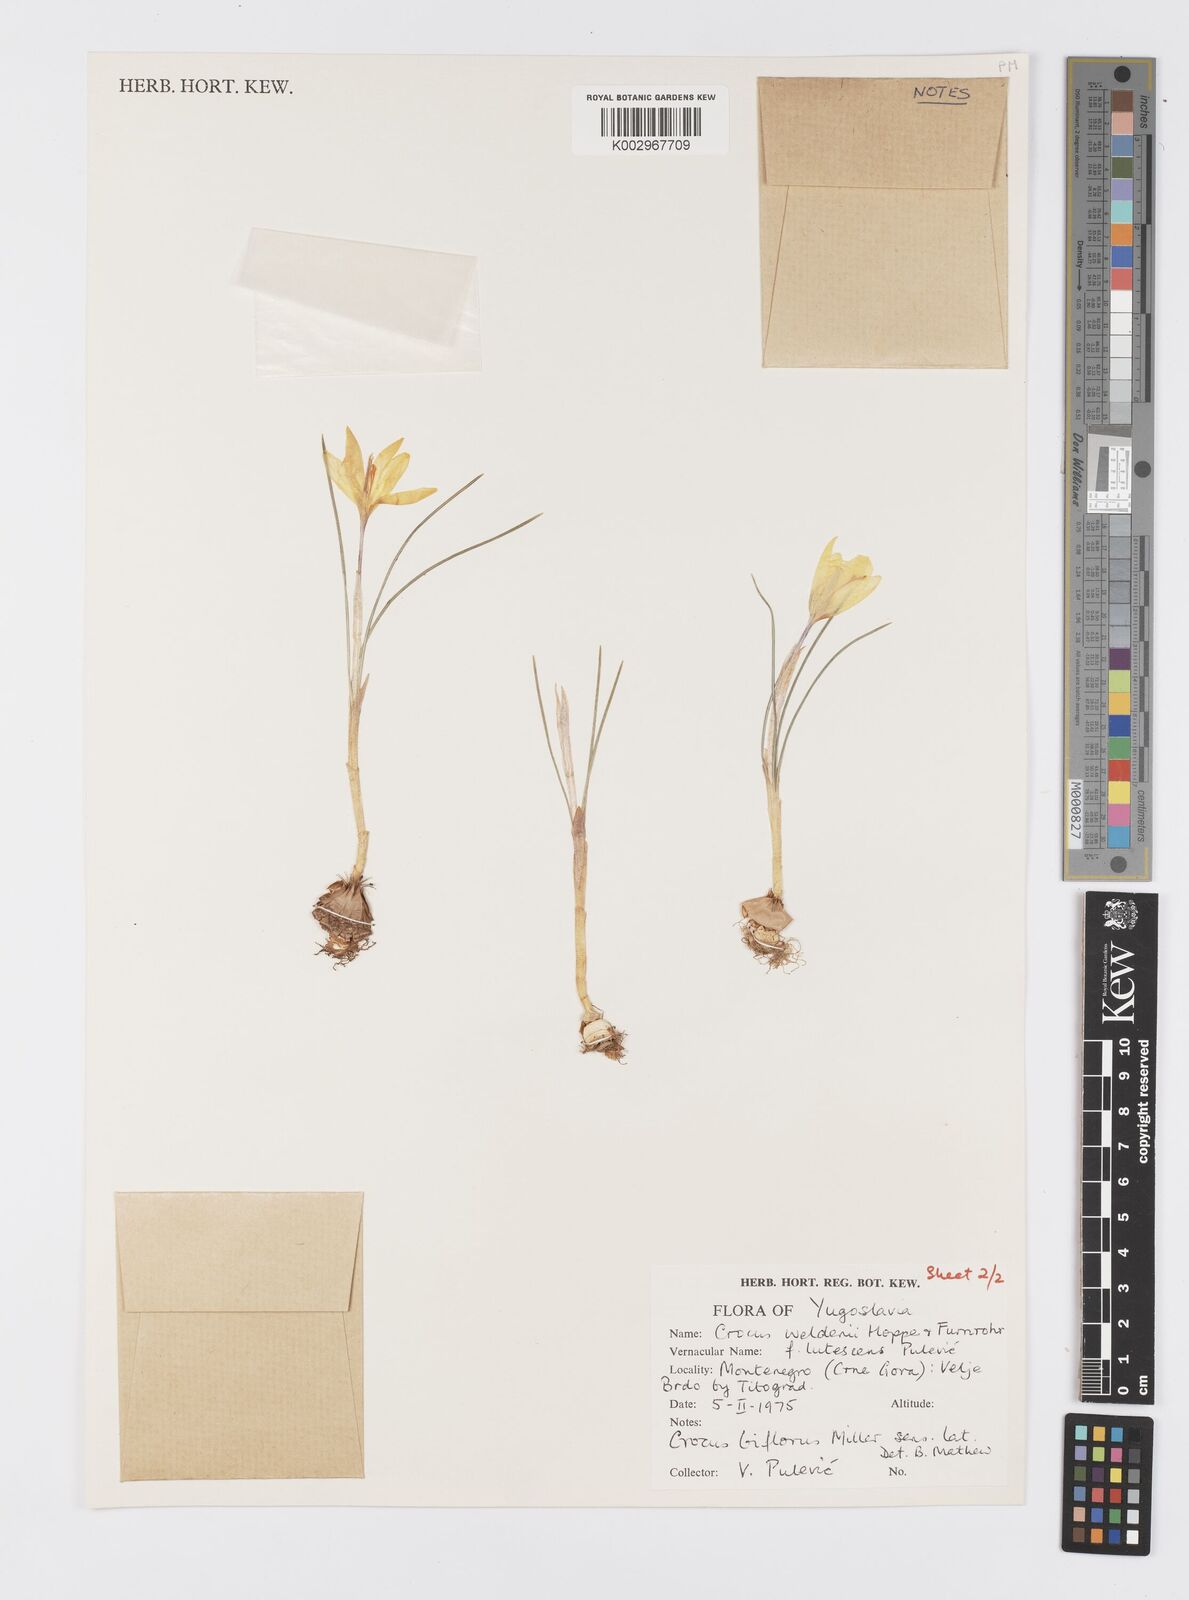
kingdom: Plantae
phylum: Tracheophyta
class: Liliopsida
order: Asparagales
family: Iridaceae
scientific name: Iridaceae
